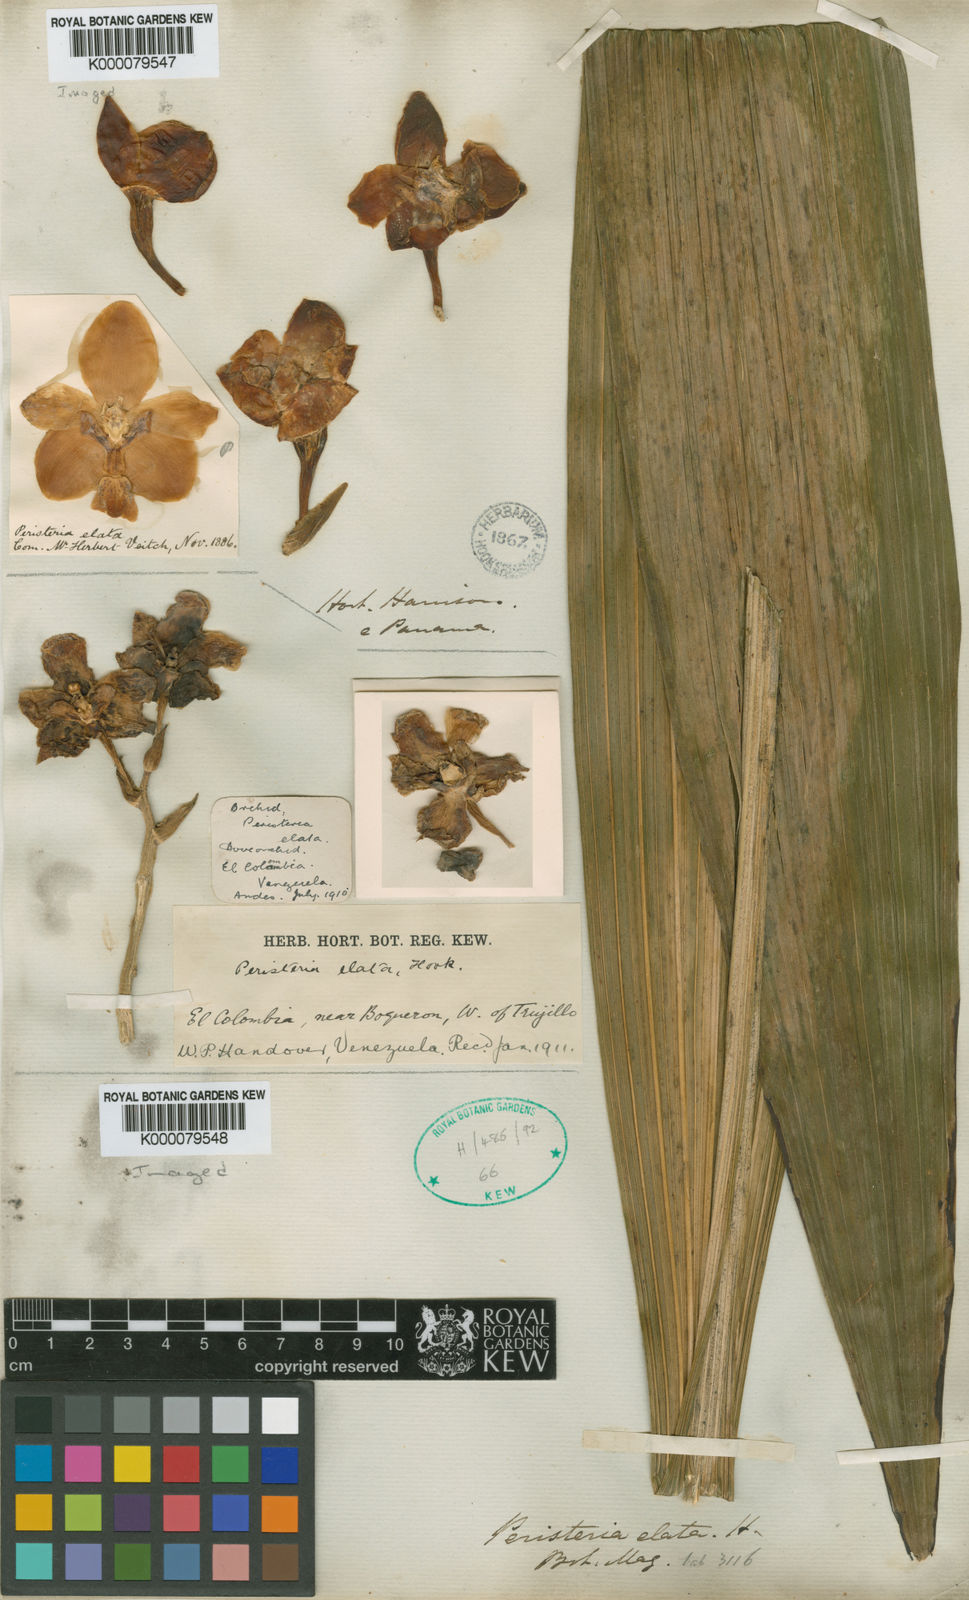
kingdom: Plantae
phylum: Tracheophyta
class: Liliopsida
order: Asparagales
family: Orchidaceae
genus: Peristeria
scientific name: Peristeria elata
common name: Dove orchid
